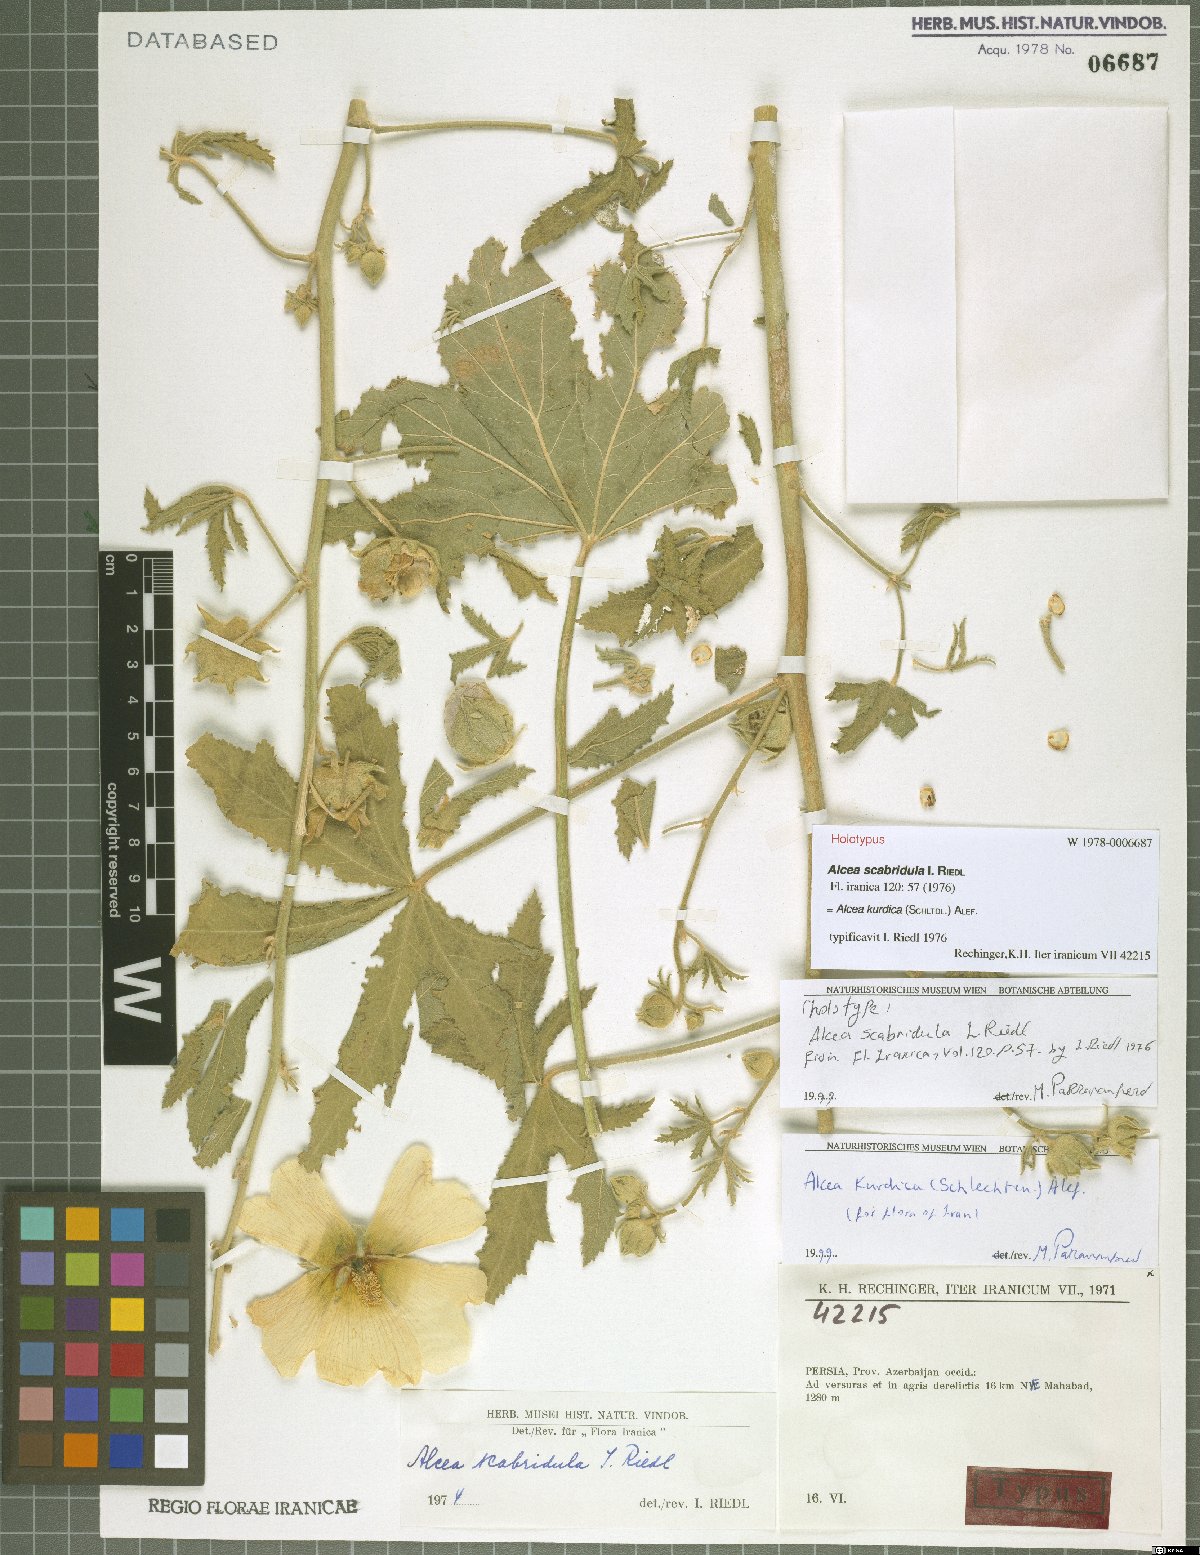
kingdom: Plantae
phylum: Tracheophyta
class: Magnoliopsida
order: Malvales
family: Malvaceae
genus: Alcea
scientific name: Alcea kurdica
